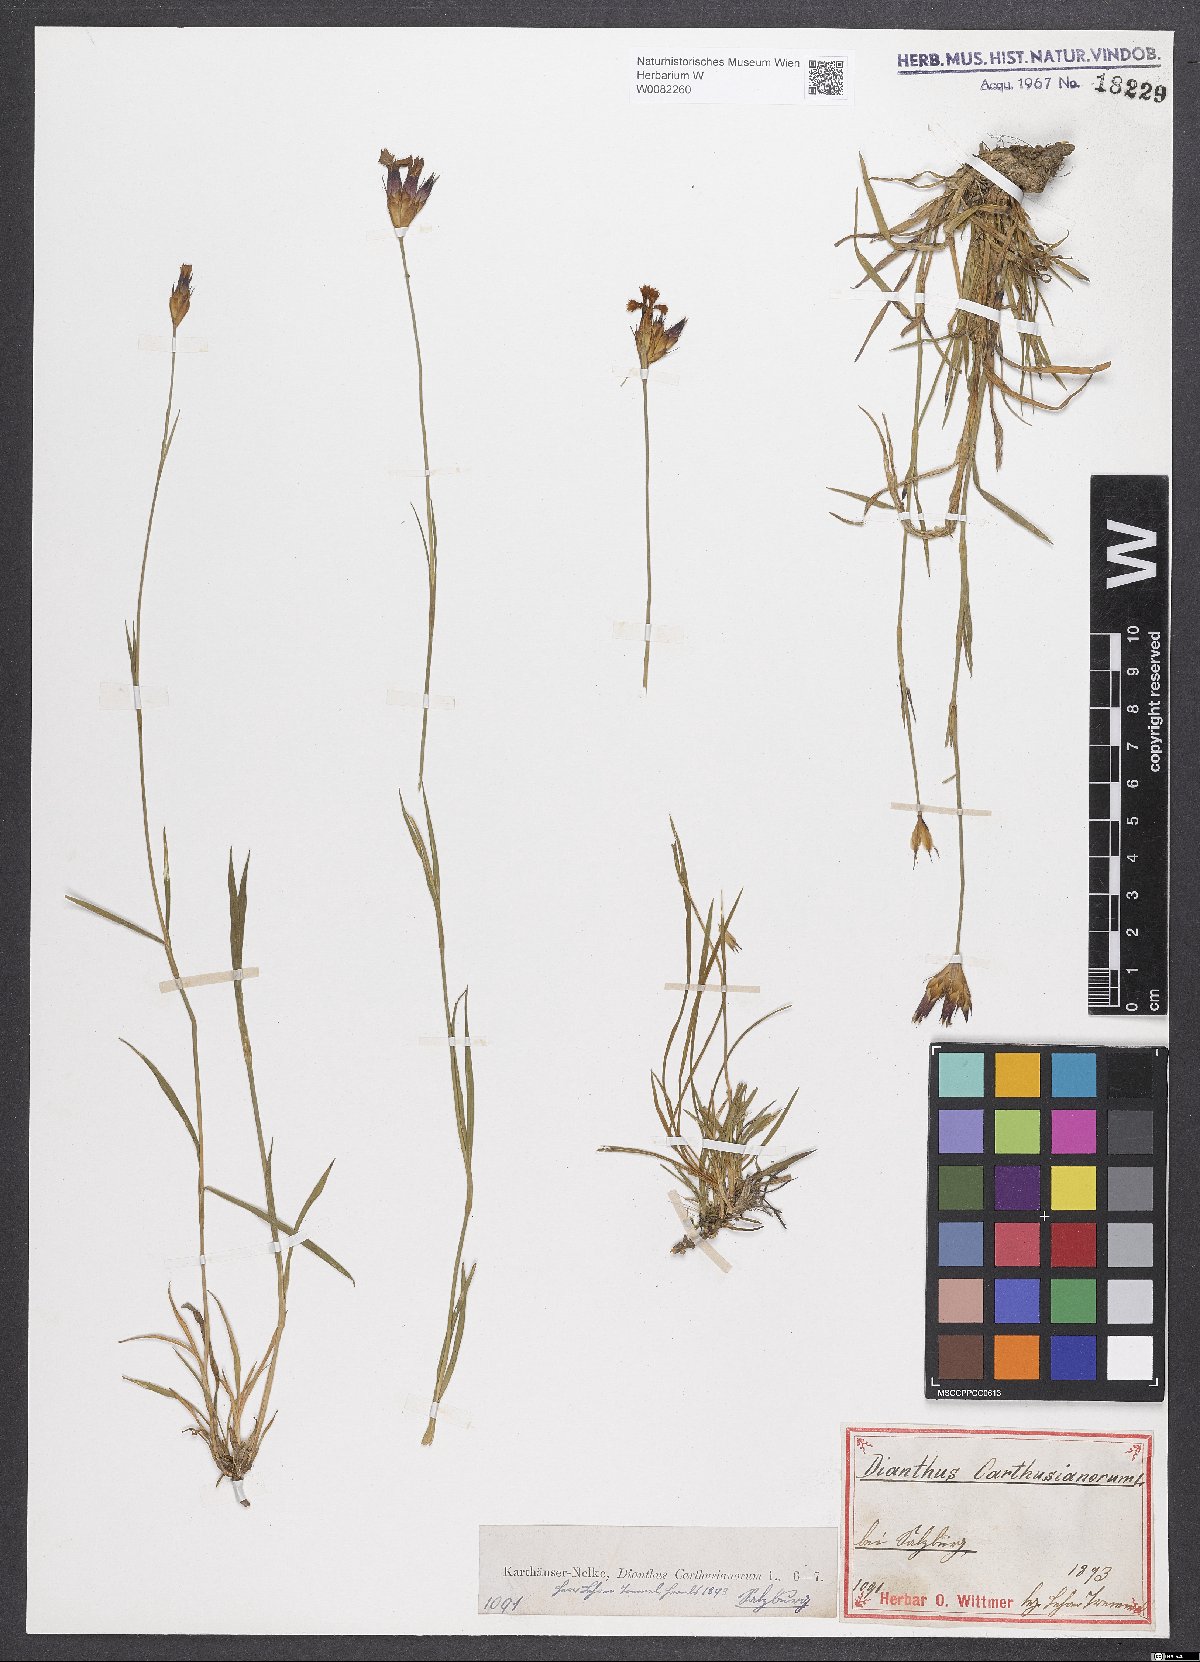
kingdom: Plantae
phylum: Tracheophyta
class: Magnoliopsida
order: Caryophyllales
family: Caryophyllaceae
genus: Dianthus
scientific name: Dianthus carthusianorum
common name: Carthusian pink
